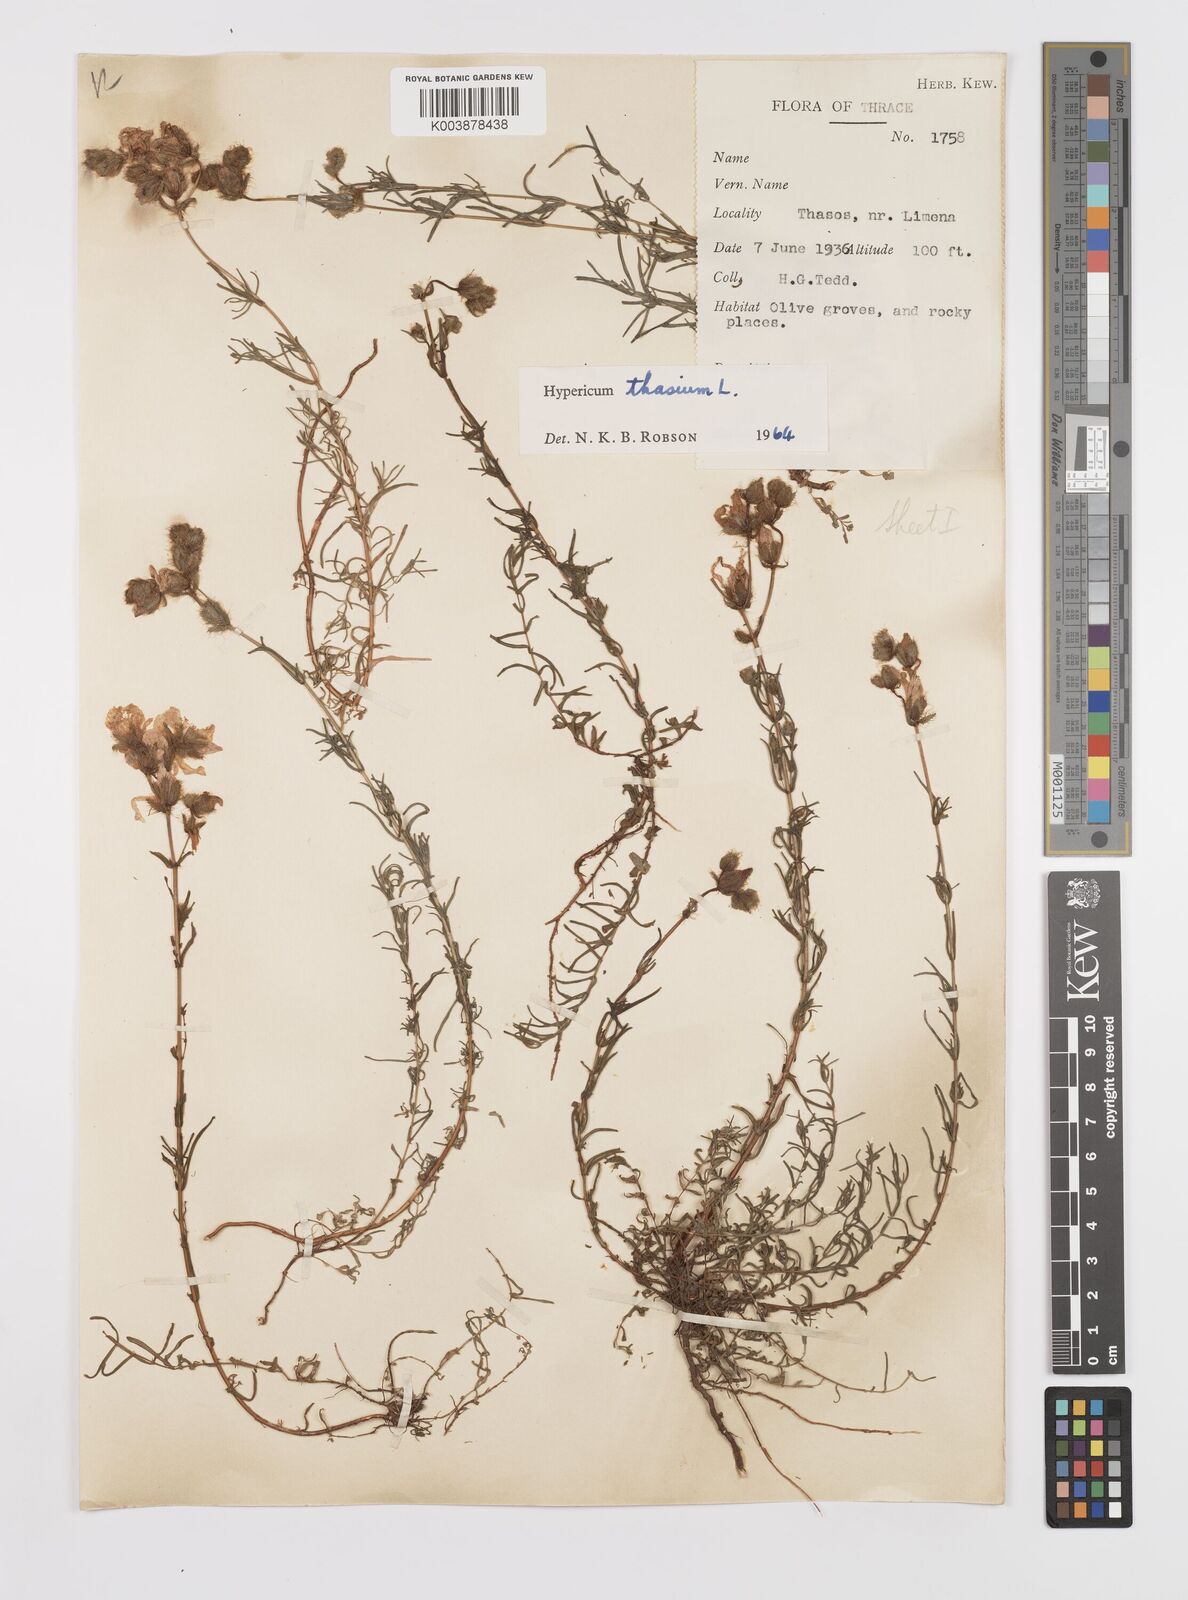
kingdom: Plantae
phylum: Tracheophyta
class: Magnoliopsida
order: Malpighiales
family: Hypericaceae
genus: Hypericum
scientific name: Hypericum thasium
